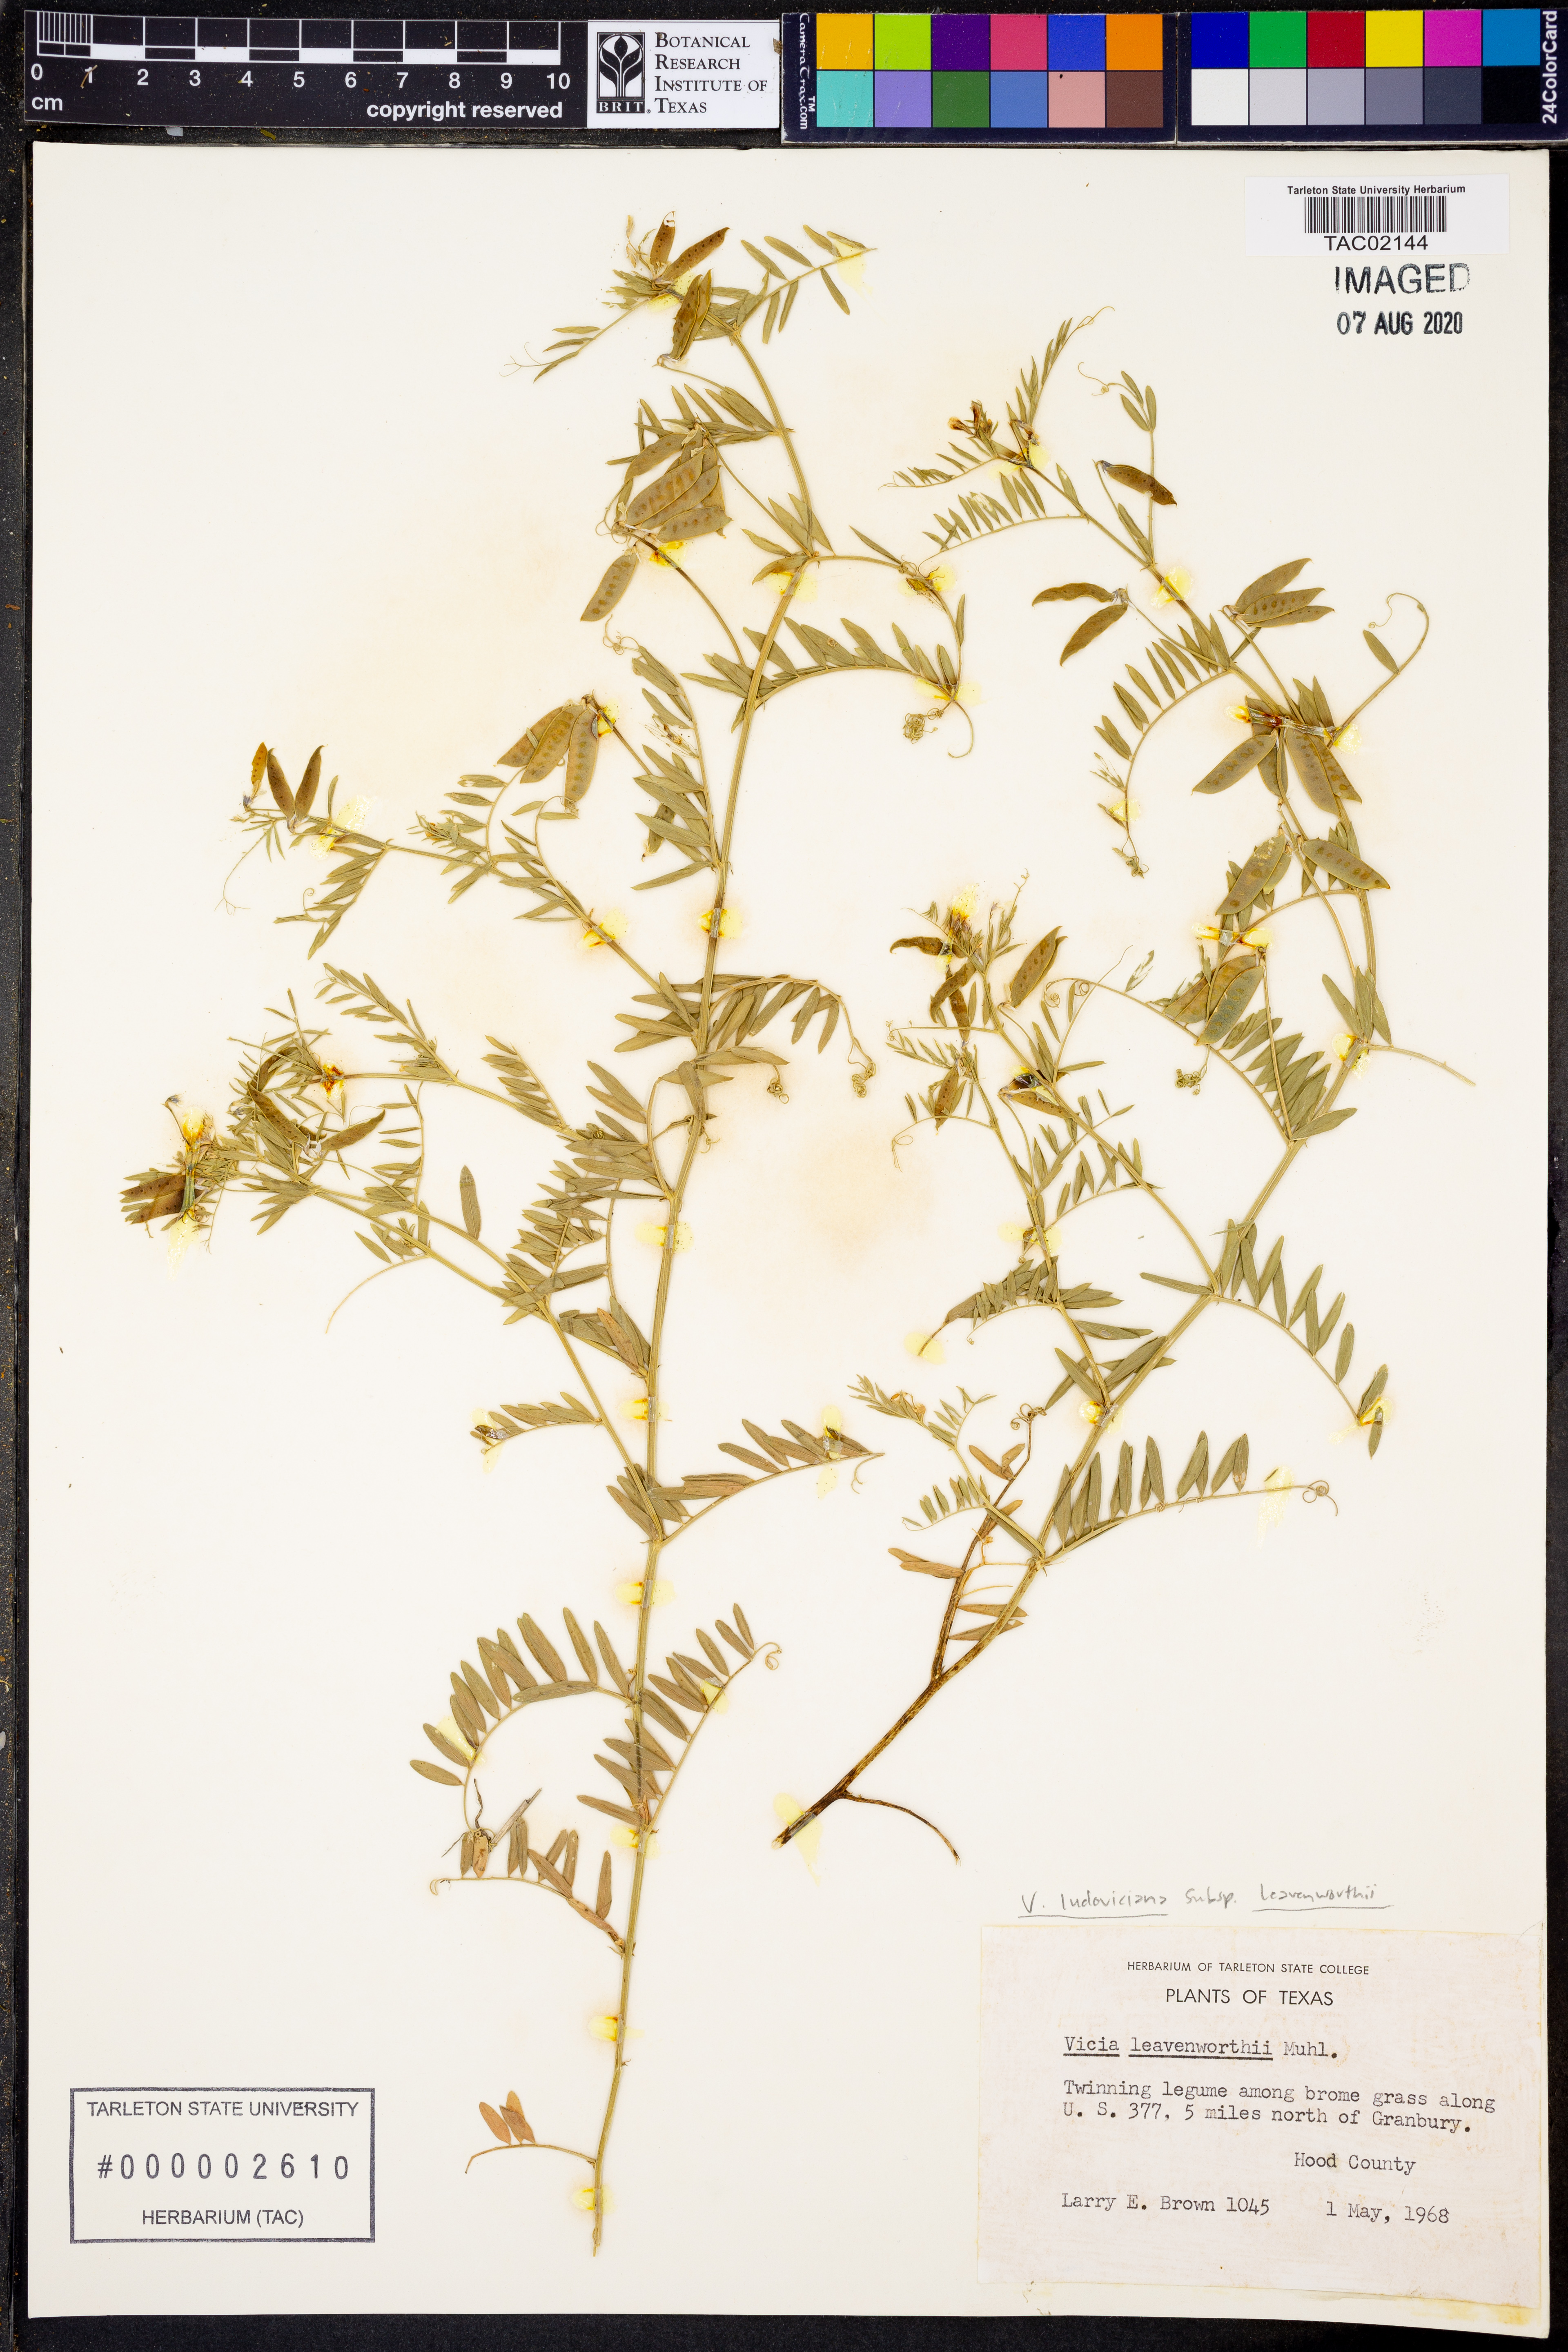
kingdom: Plantae
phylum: Tracheophyta
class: Magnoliopsida
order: Fabales
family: Fabaceae
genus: Vicia
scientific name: Vicia ludoviciana
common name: Louisiana vetch
